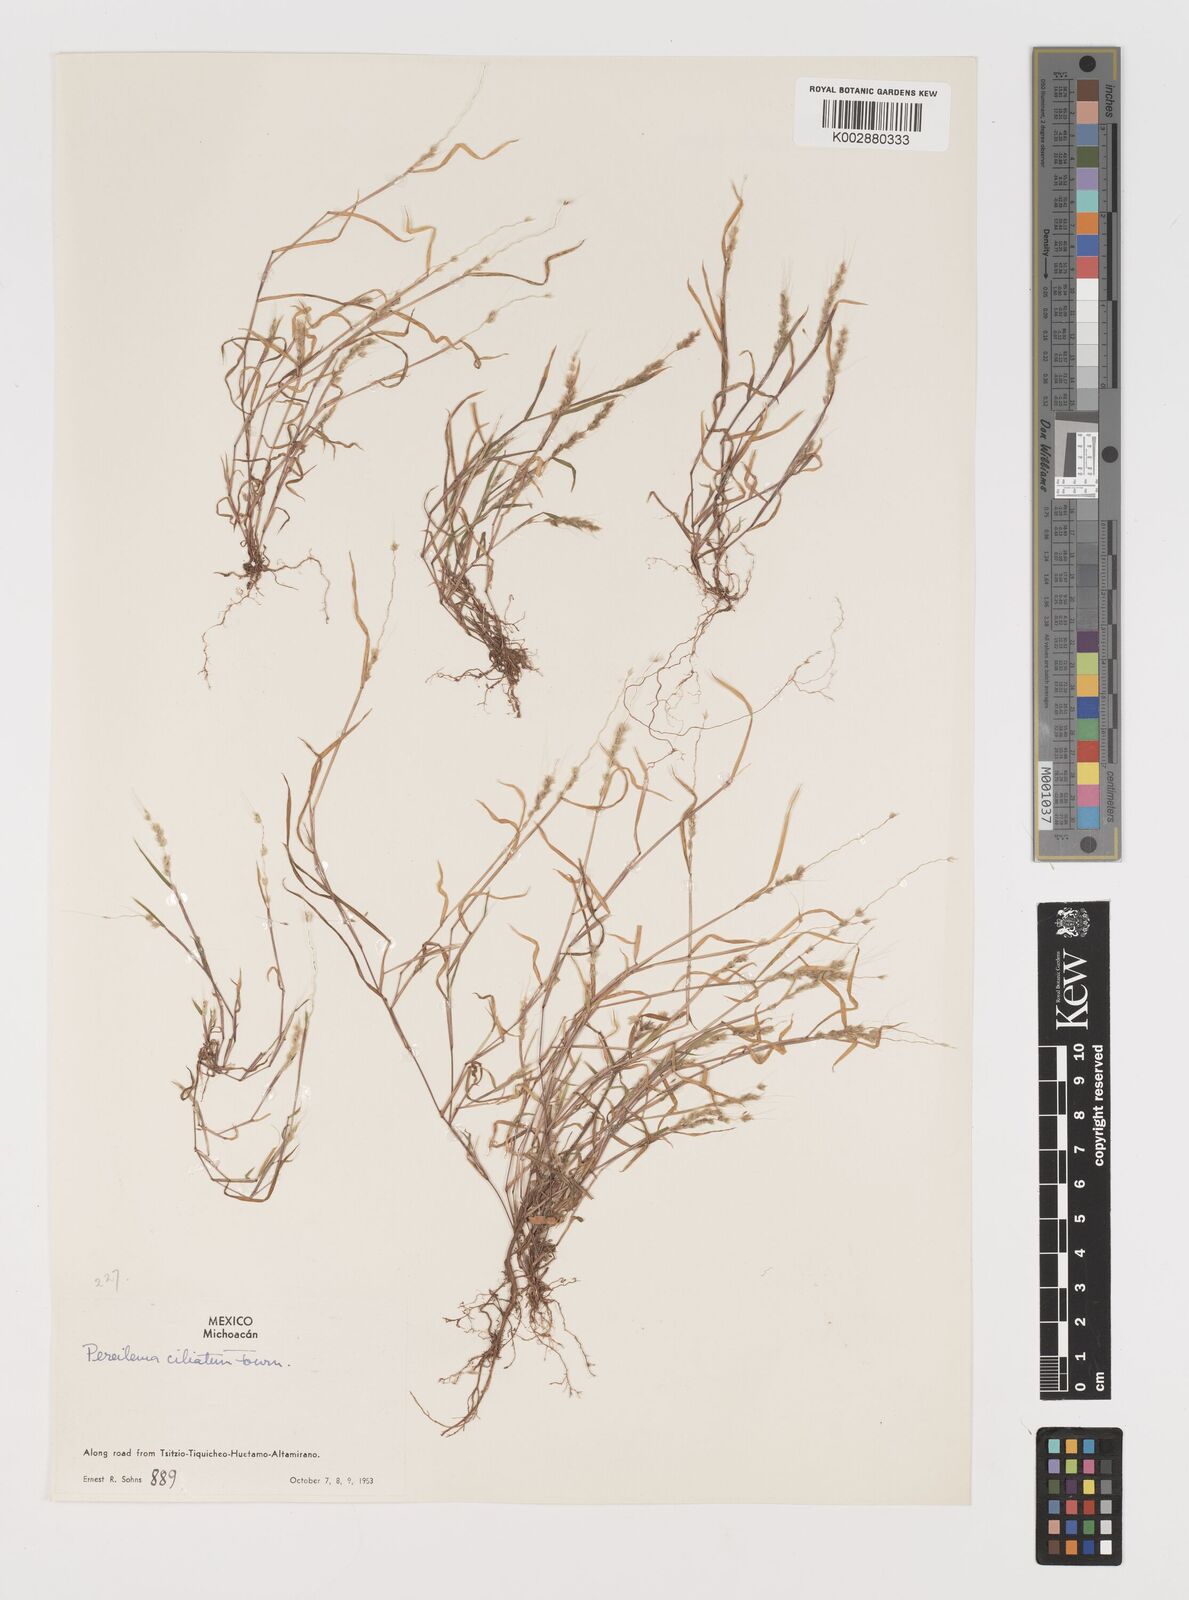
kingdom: Plantae
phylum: Tracheophyta
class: Liliopsida
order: Poales
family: Poaceae
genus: Muhlenbergia
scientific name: Muhlenbergia plumiseta
